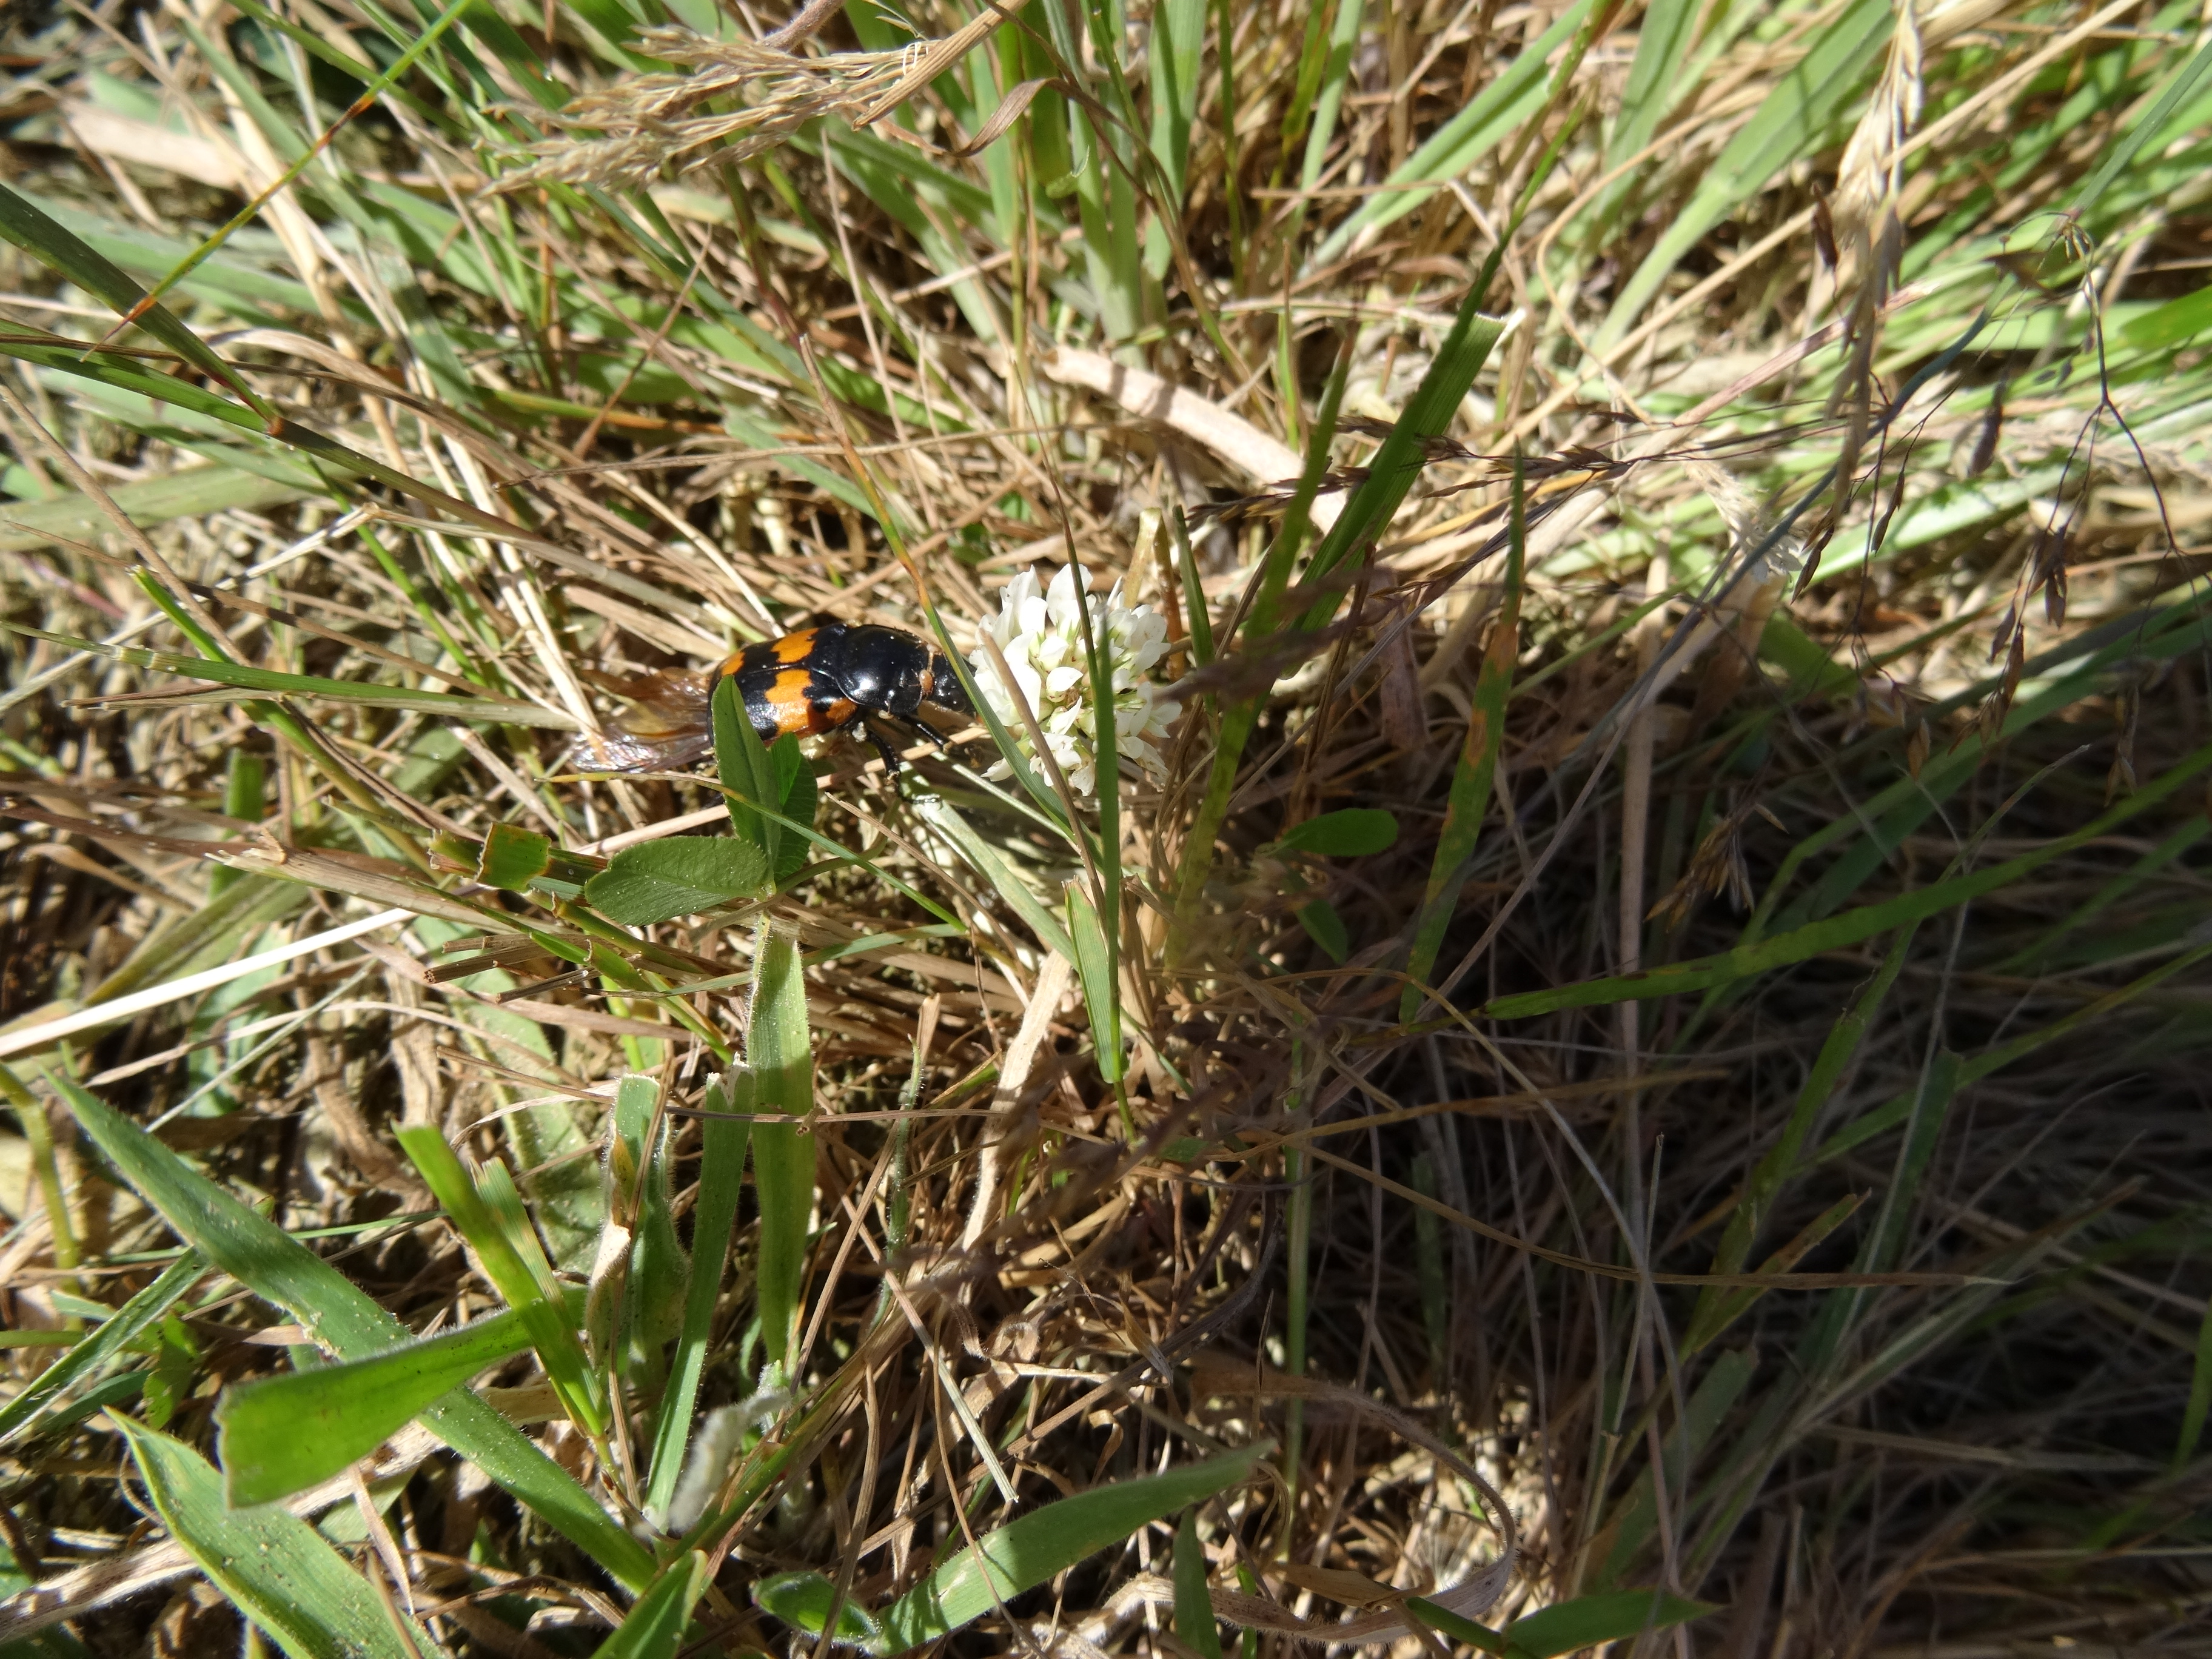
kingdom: Animalia
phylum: Arthropoda
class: Insecta
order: Coleoptera
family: Staphylinidae
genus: Nicrophorus
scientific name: Nicrophorus investigator
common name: Skovådselgraver
